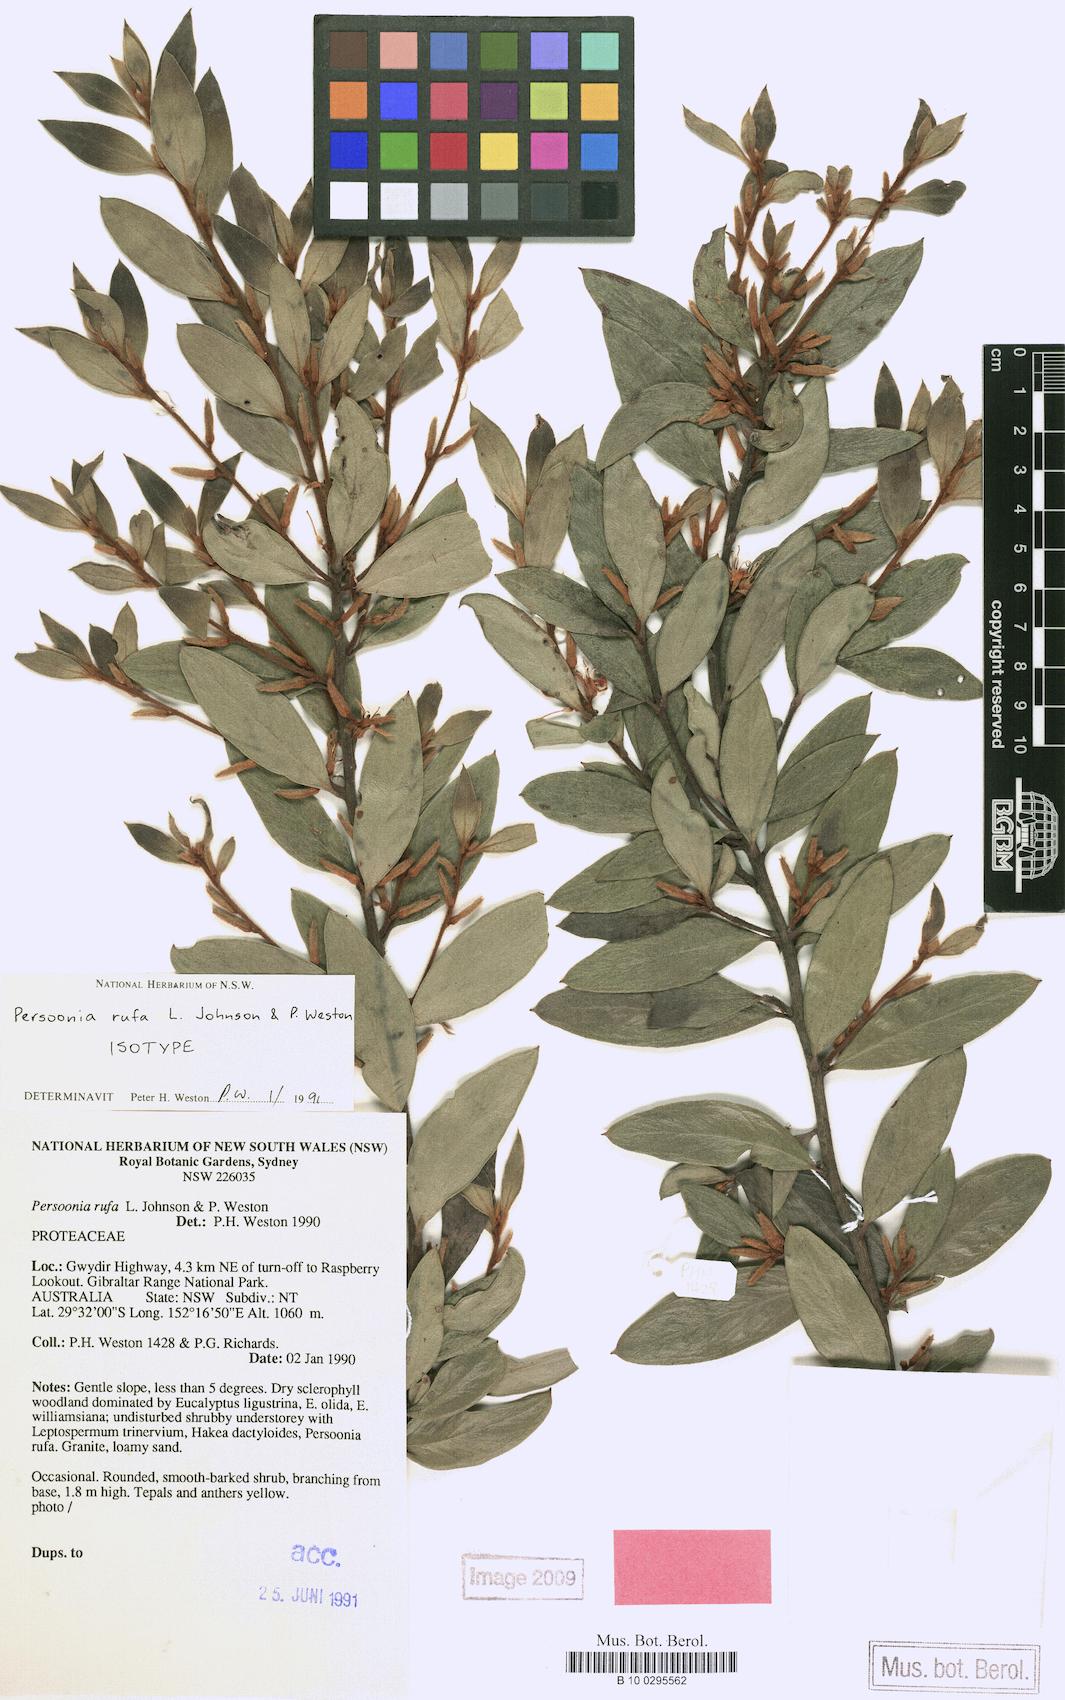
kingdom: Plantae
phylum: Tracheophyta
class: Magnoliopsida
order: Proteales
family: Proteaceae
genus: Persoonia
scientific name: Persoonia rufa
